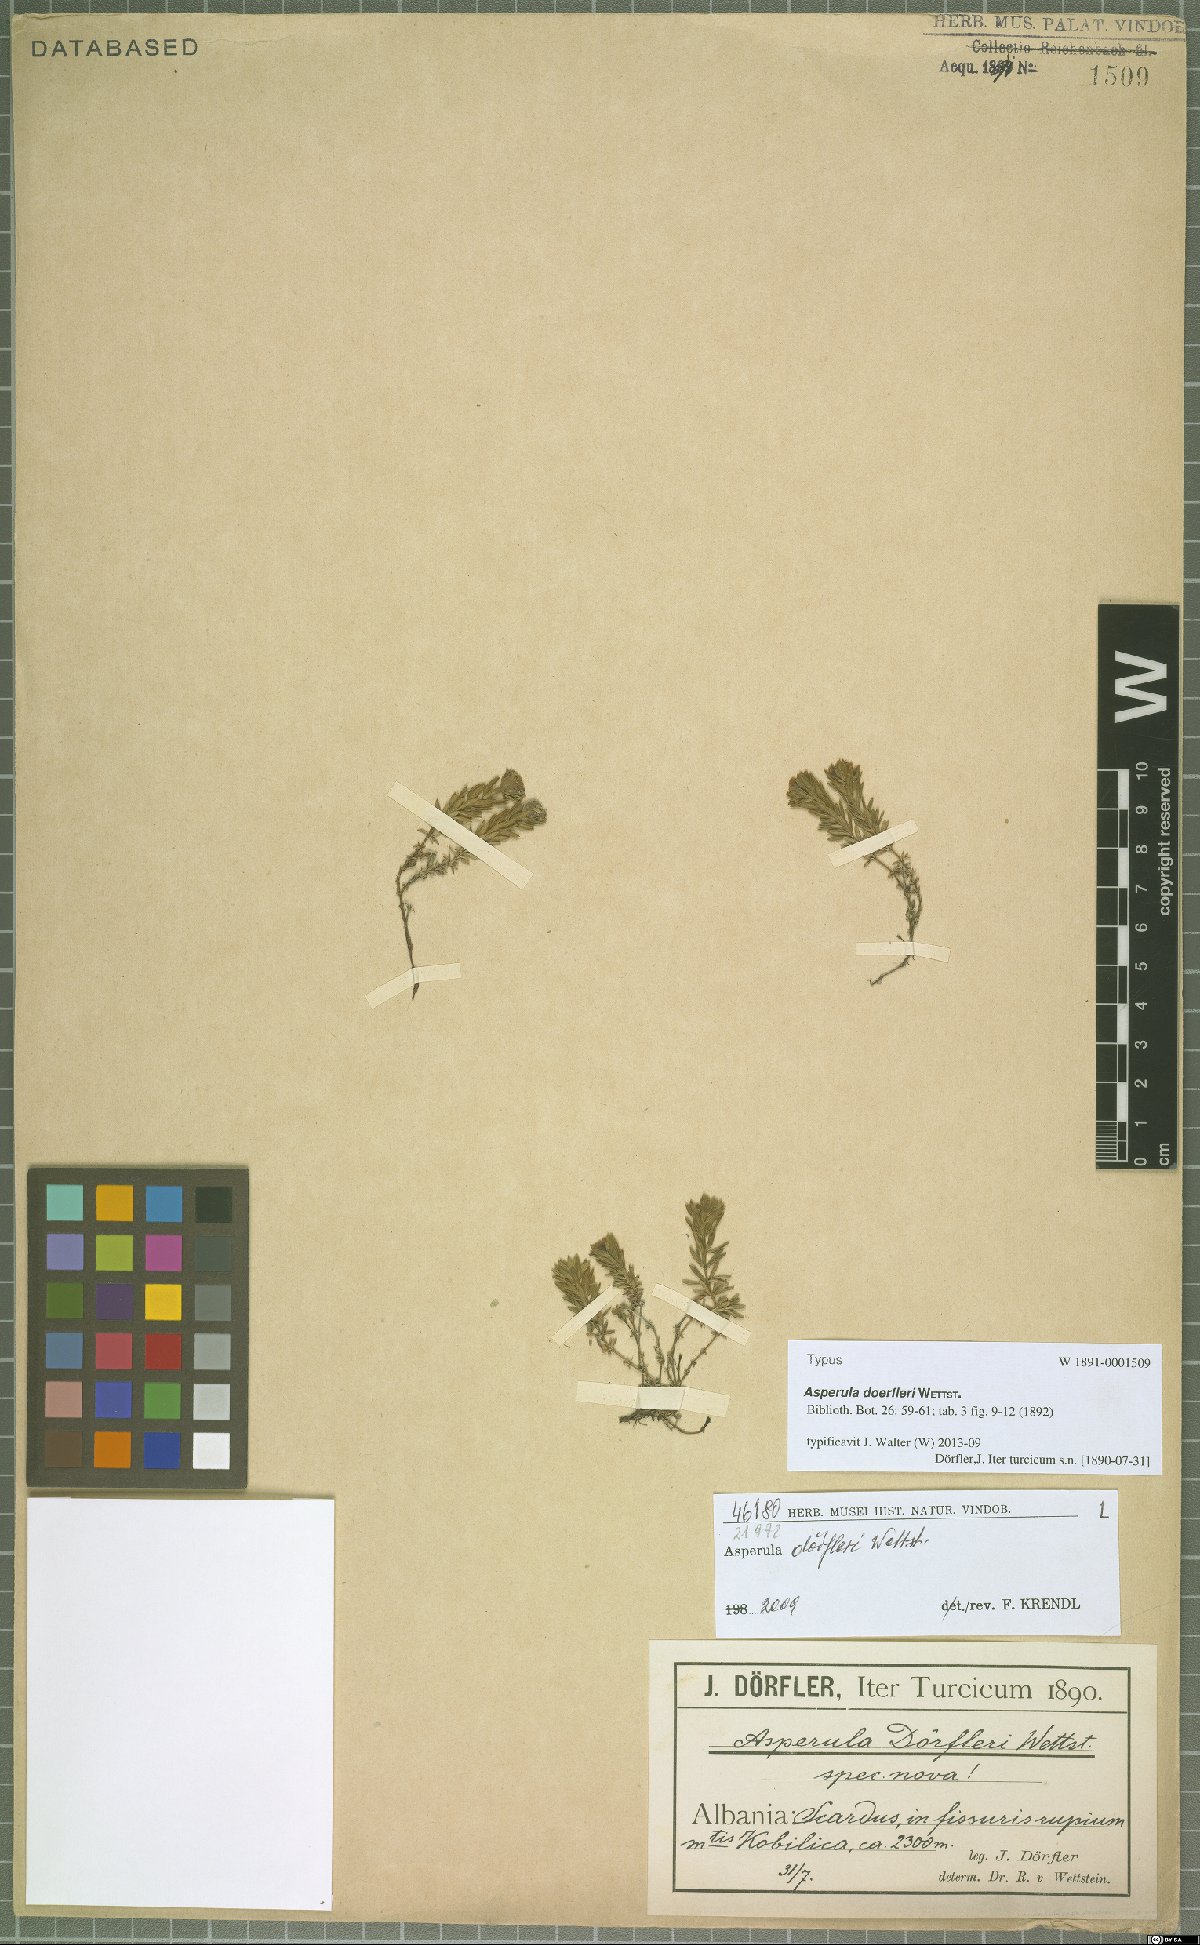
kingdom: Plantae
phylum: Tracheophyta
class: Magnoliopsida
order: Gentianales
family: Rubiaceae
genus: Hexaphylla
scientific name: Hexaphylla doerfleri
